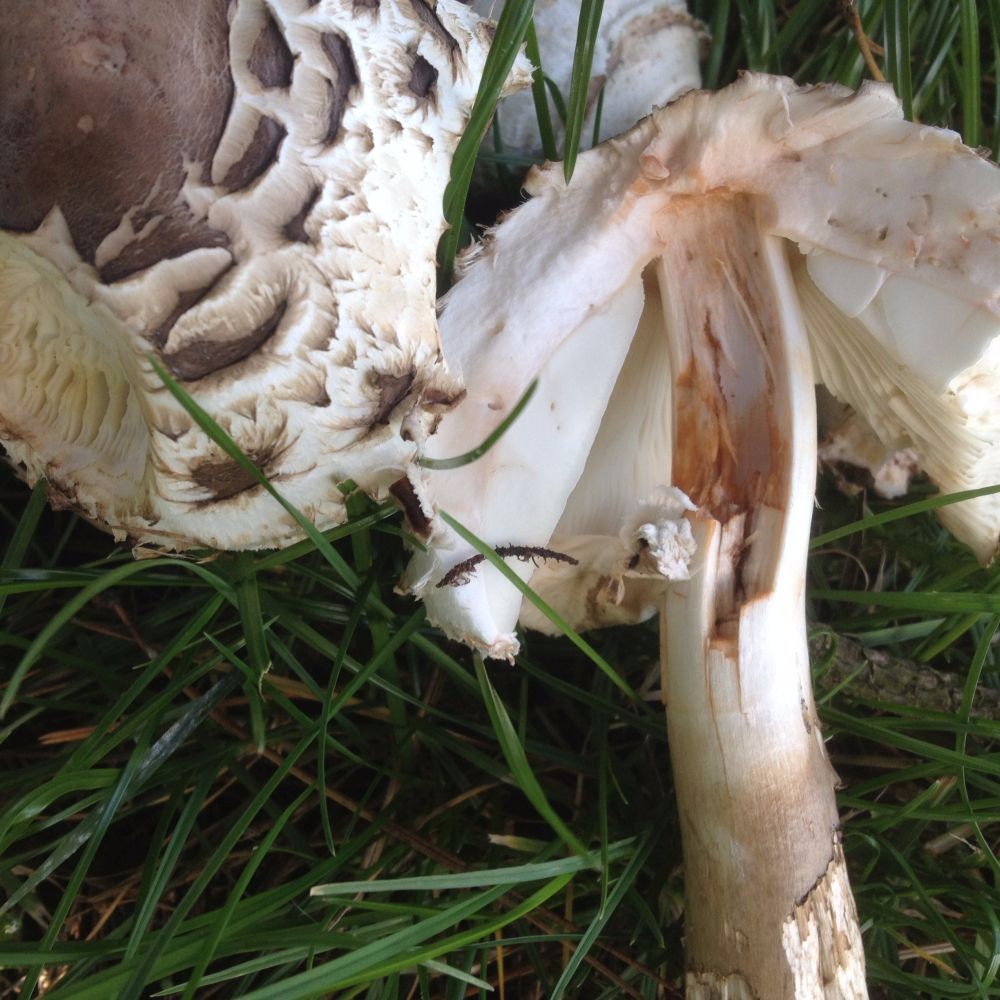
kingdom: Fungi
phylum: Basidiomycota
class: Agaricomycetes
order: Agaricales
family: Agaricaceae
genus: Chlorophyllum
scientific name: Chlorophyllum rhacodes
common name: ægte rabarberhat
